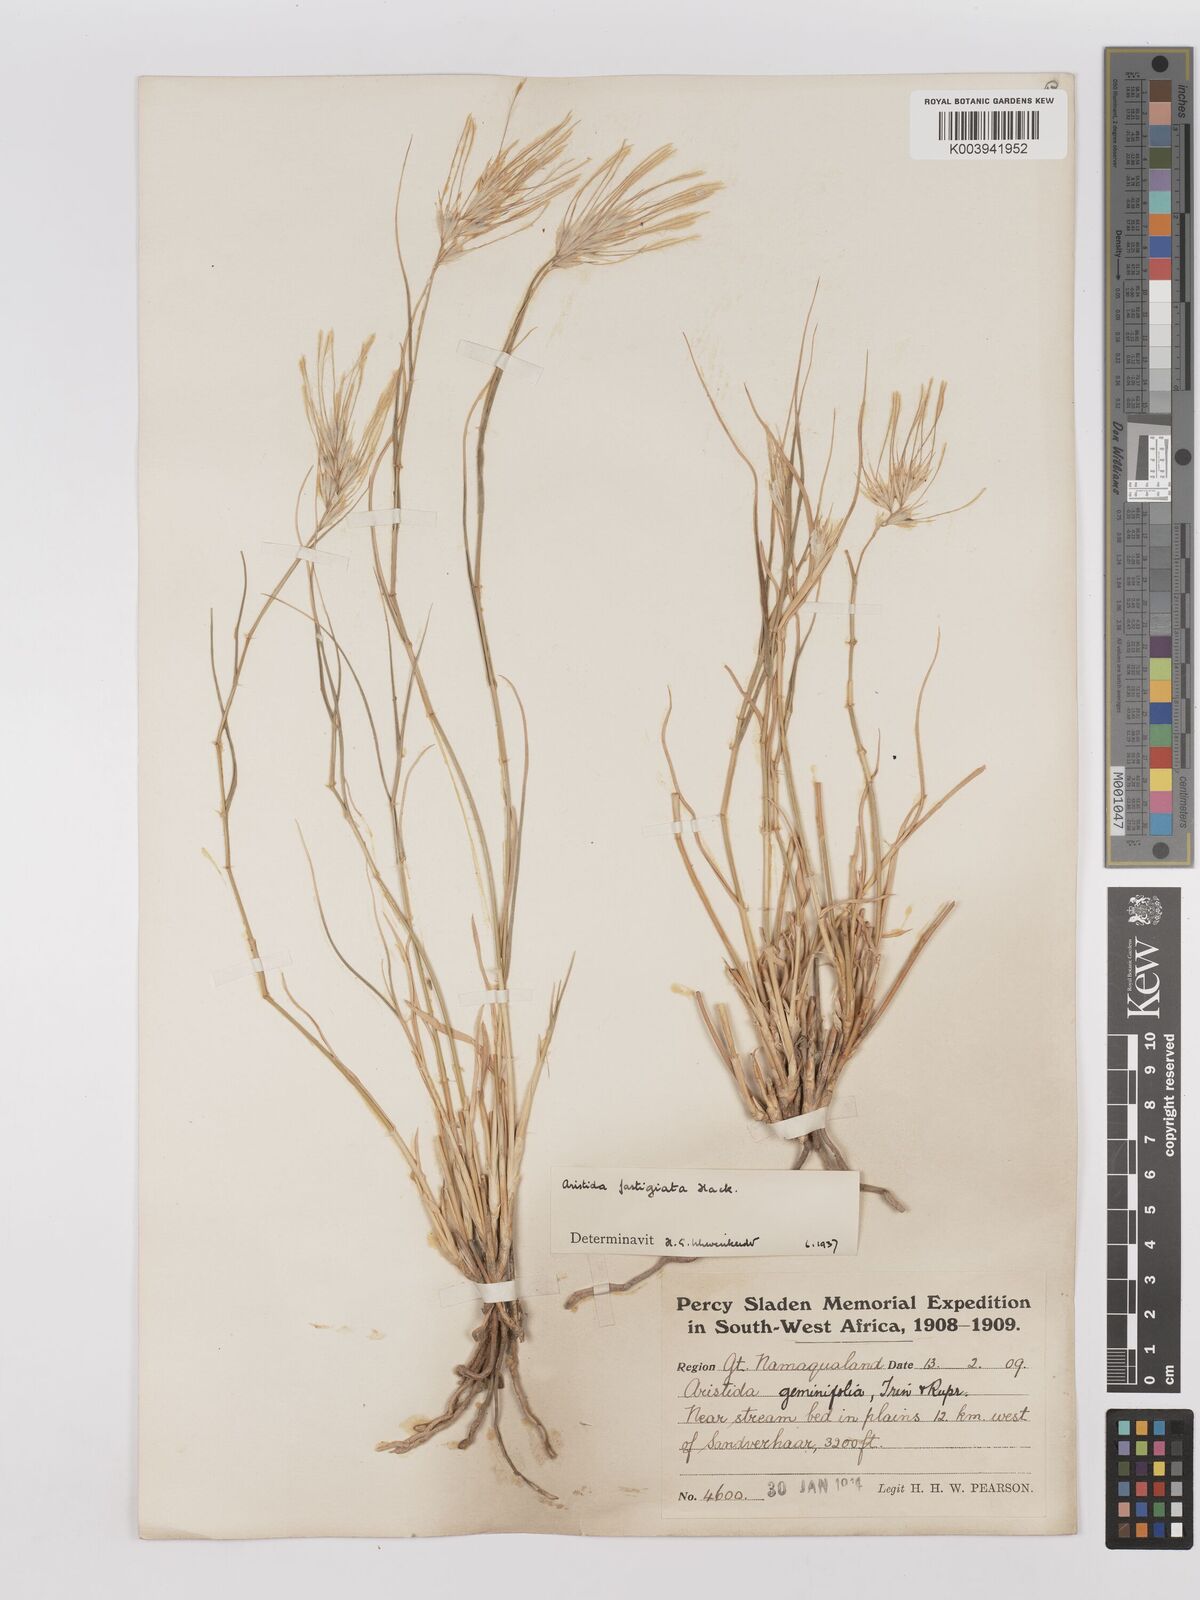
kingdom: Plantae
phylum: Tracheophyta
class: Liliopsida
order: Poales
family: Poaceae
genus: Stipagrostis
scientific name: Stipagrostis fastigiata
